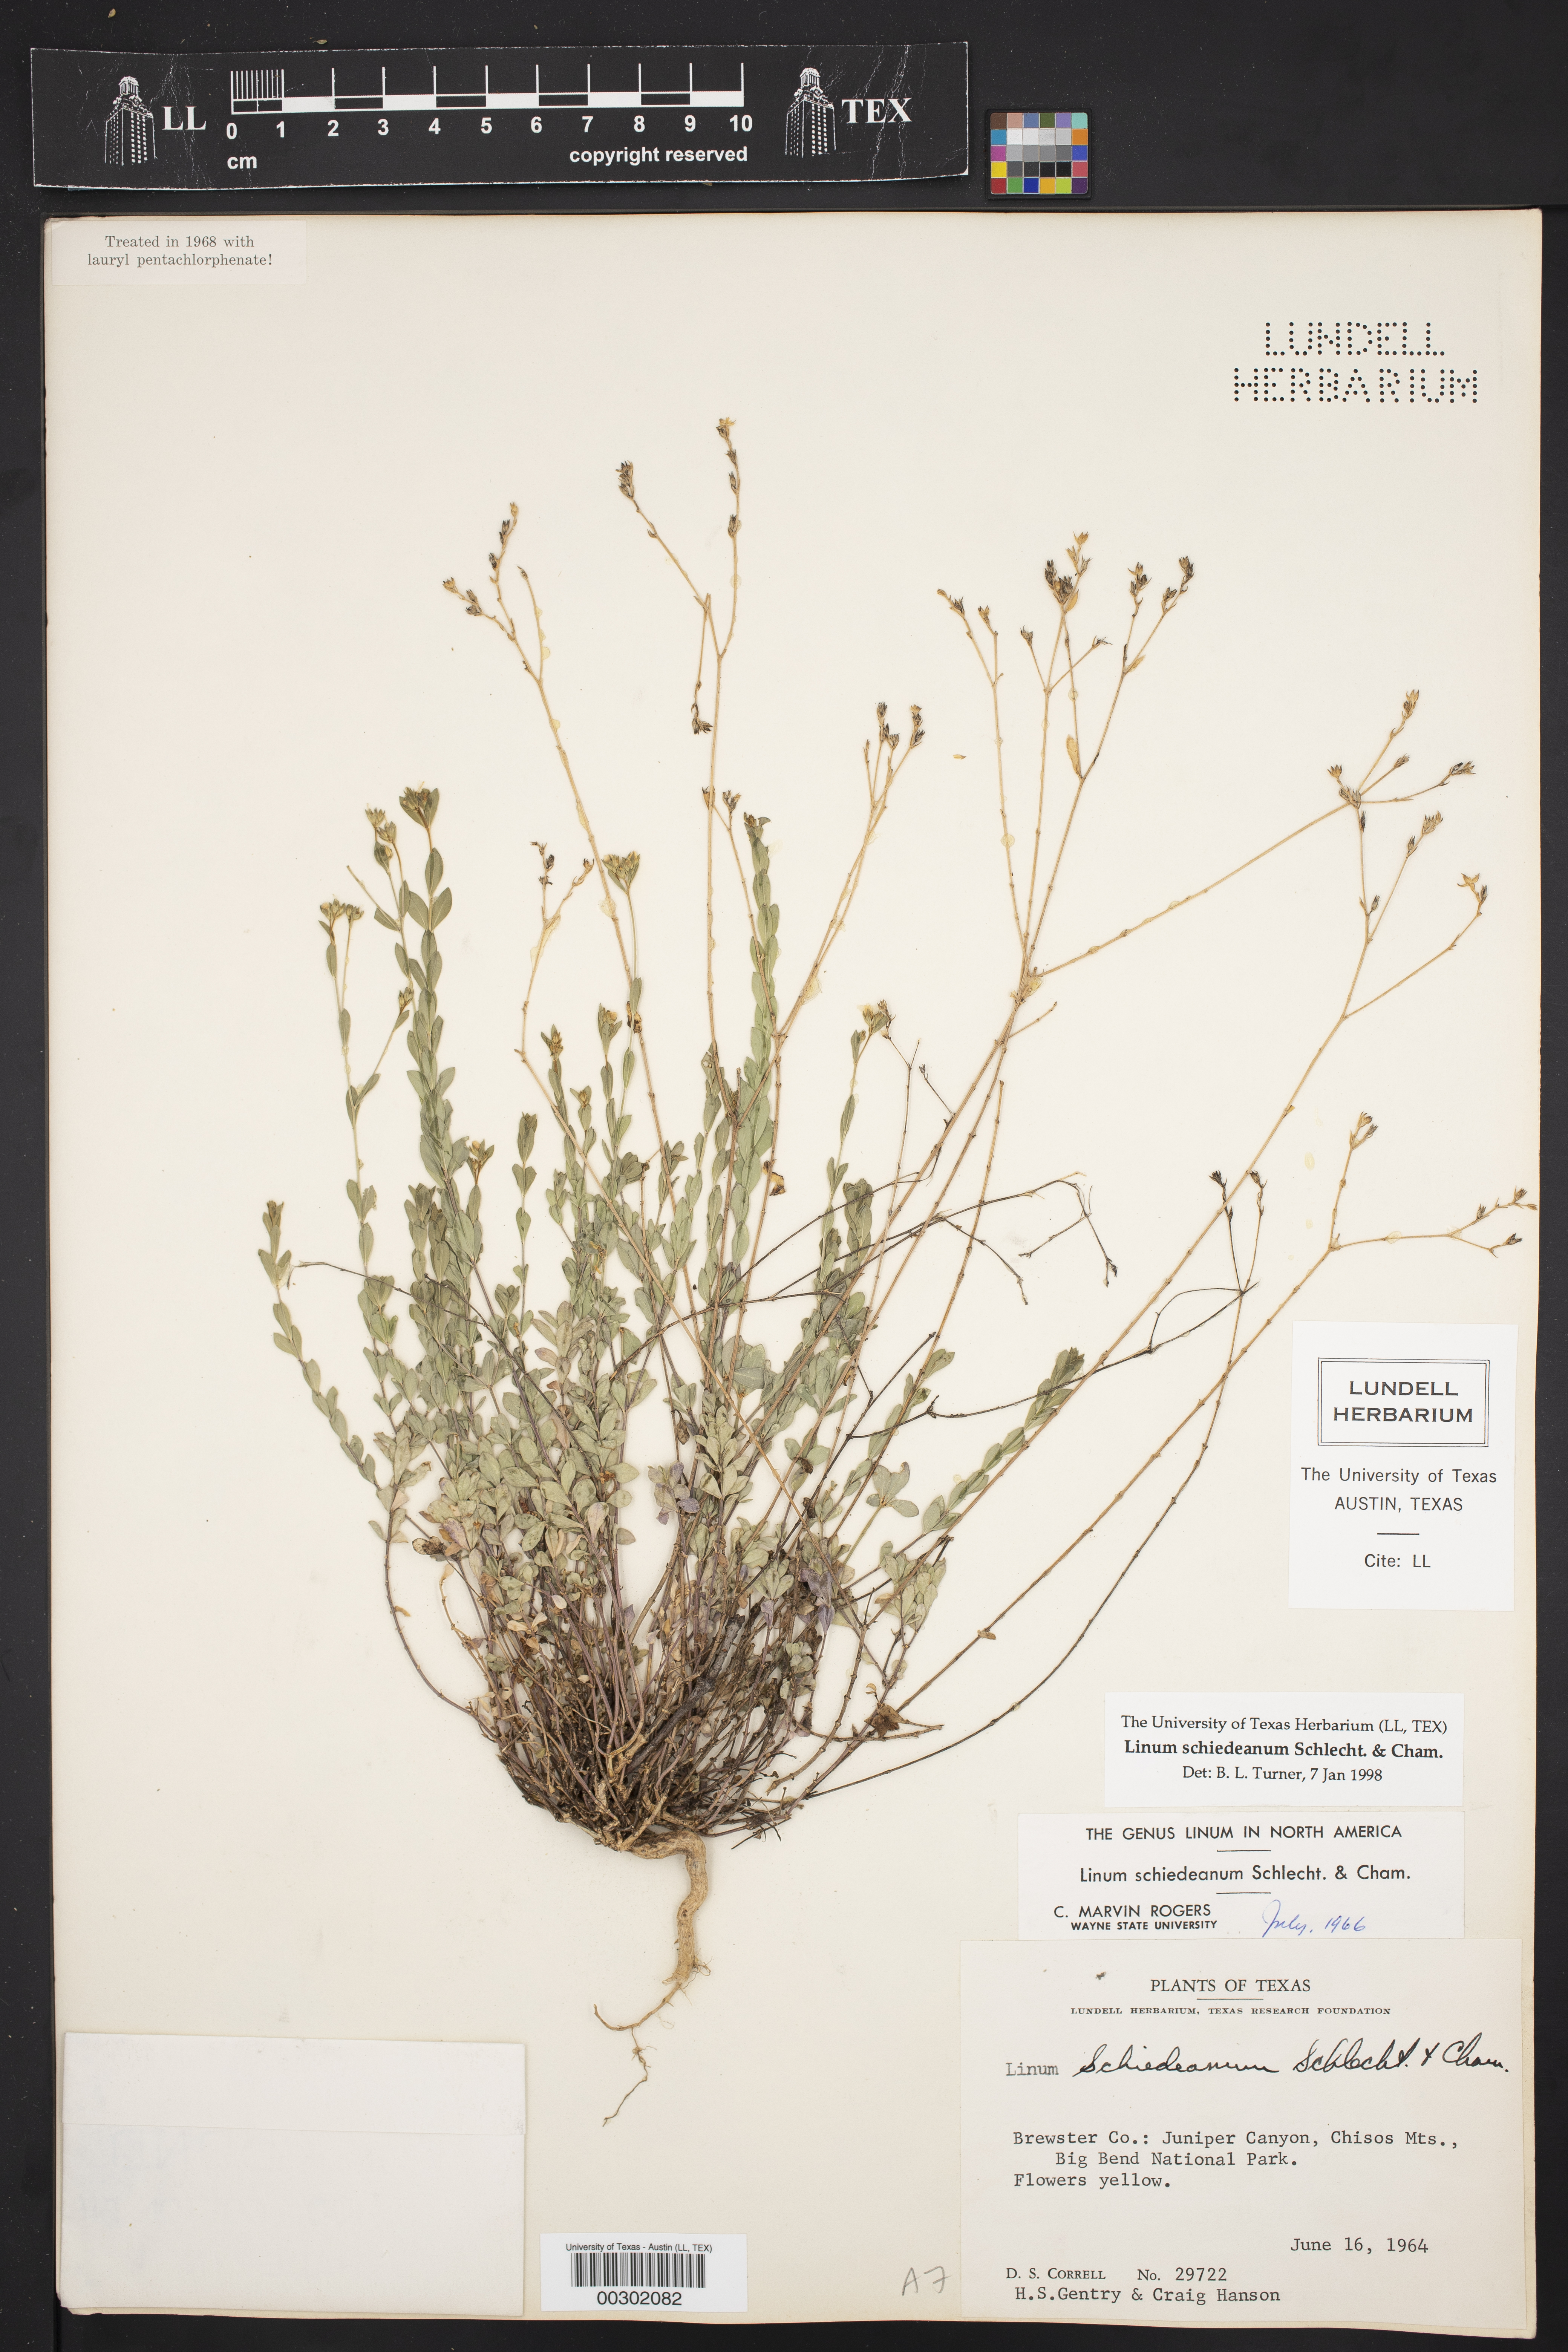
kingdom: Plantae
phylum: Tracheophyta
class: Magnoliopsida
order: Malpighiales
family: Linaceae
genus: Linum
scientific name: Linum schiedeanum
